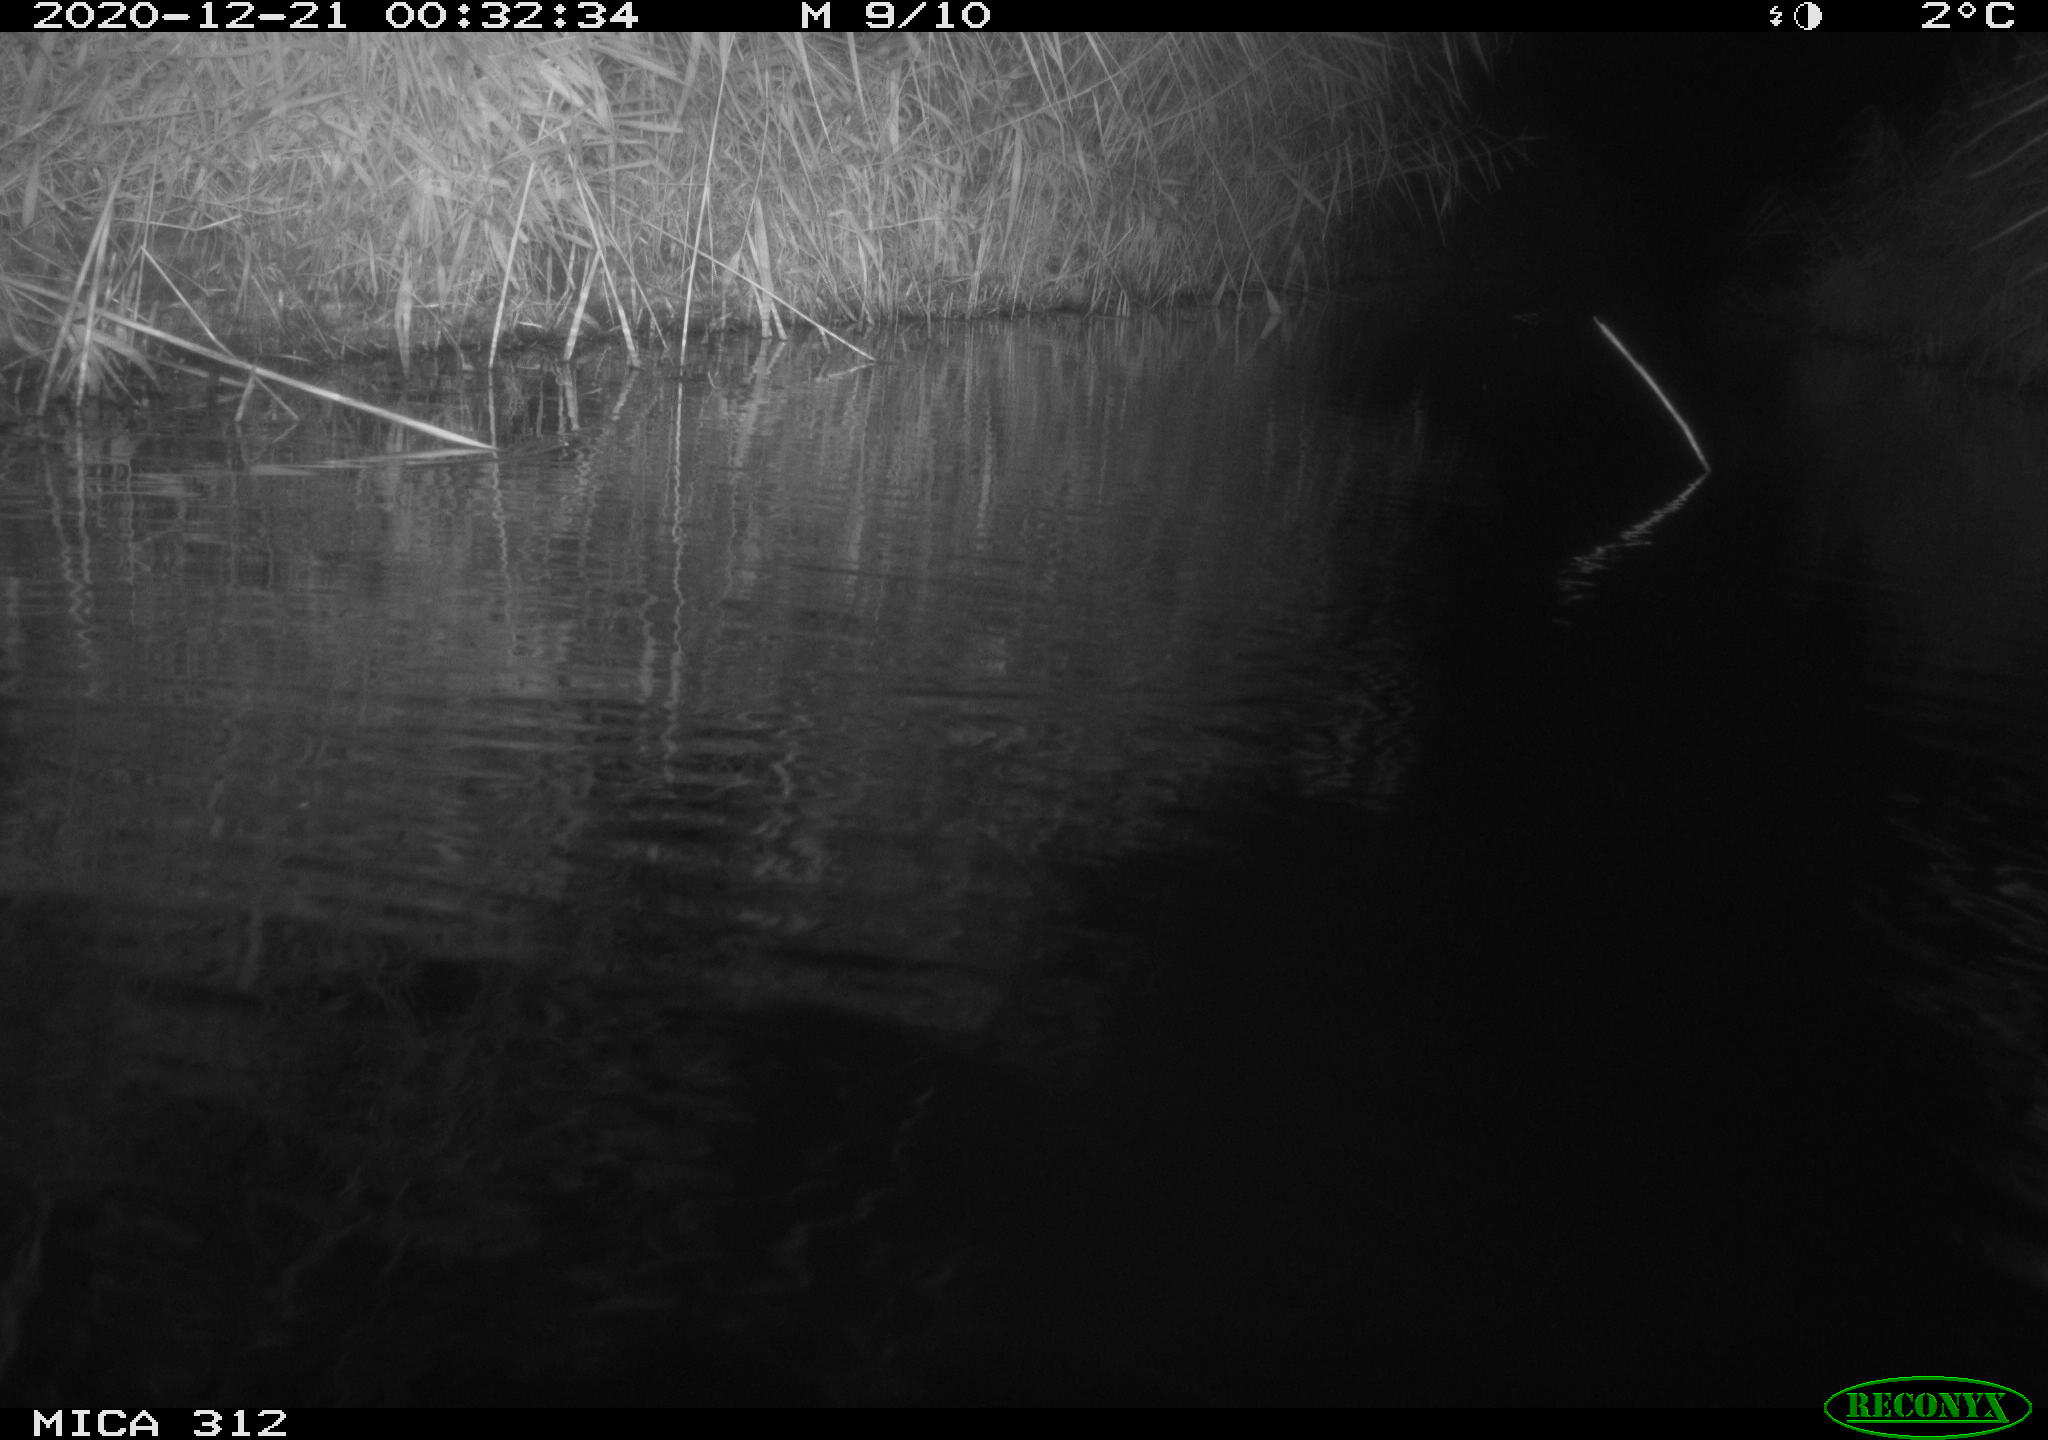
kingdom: Animalia
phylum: Chordata
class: Mammalia
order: Rodentia
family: Muridae
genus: Rattus
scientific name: Rattus norvegicus
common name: Brown rat
